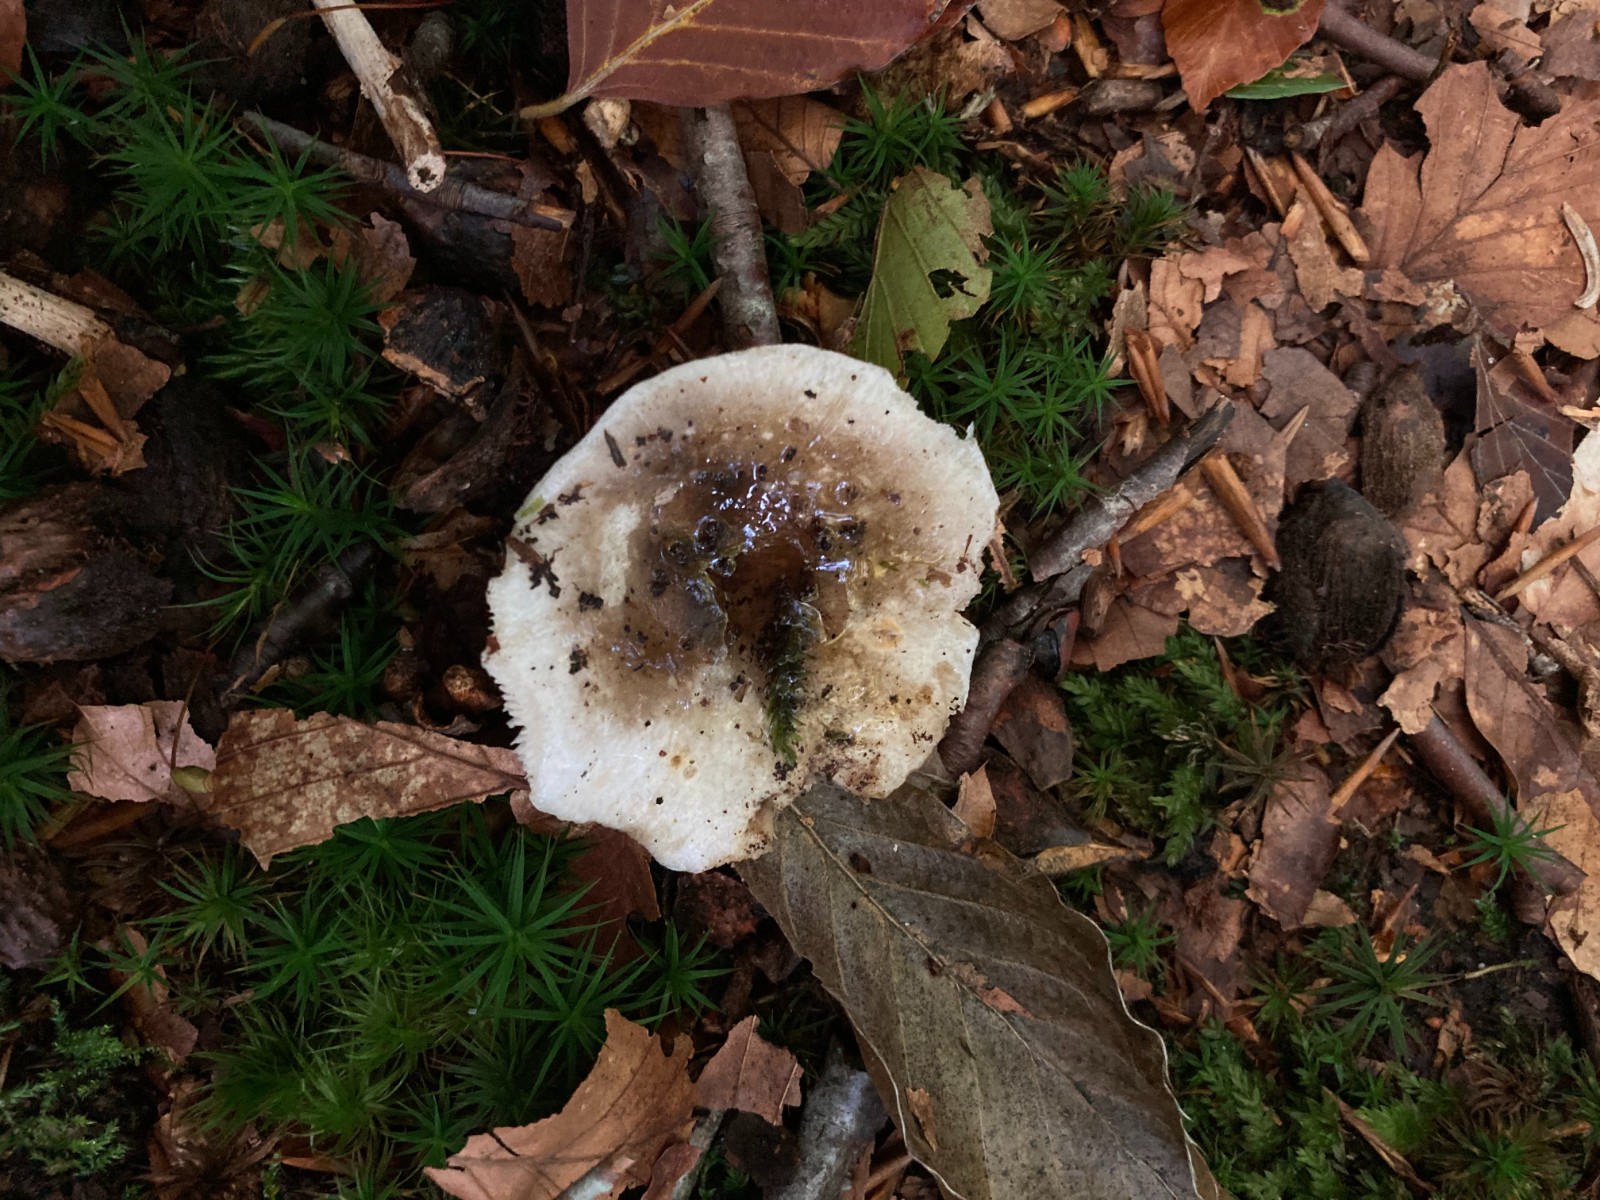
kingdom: Fungi
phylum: Basidiomycota
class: Agaricomycetes
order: Russulales
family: Russulaceae
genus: Russula
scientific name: Russula
